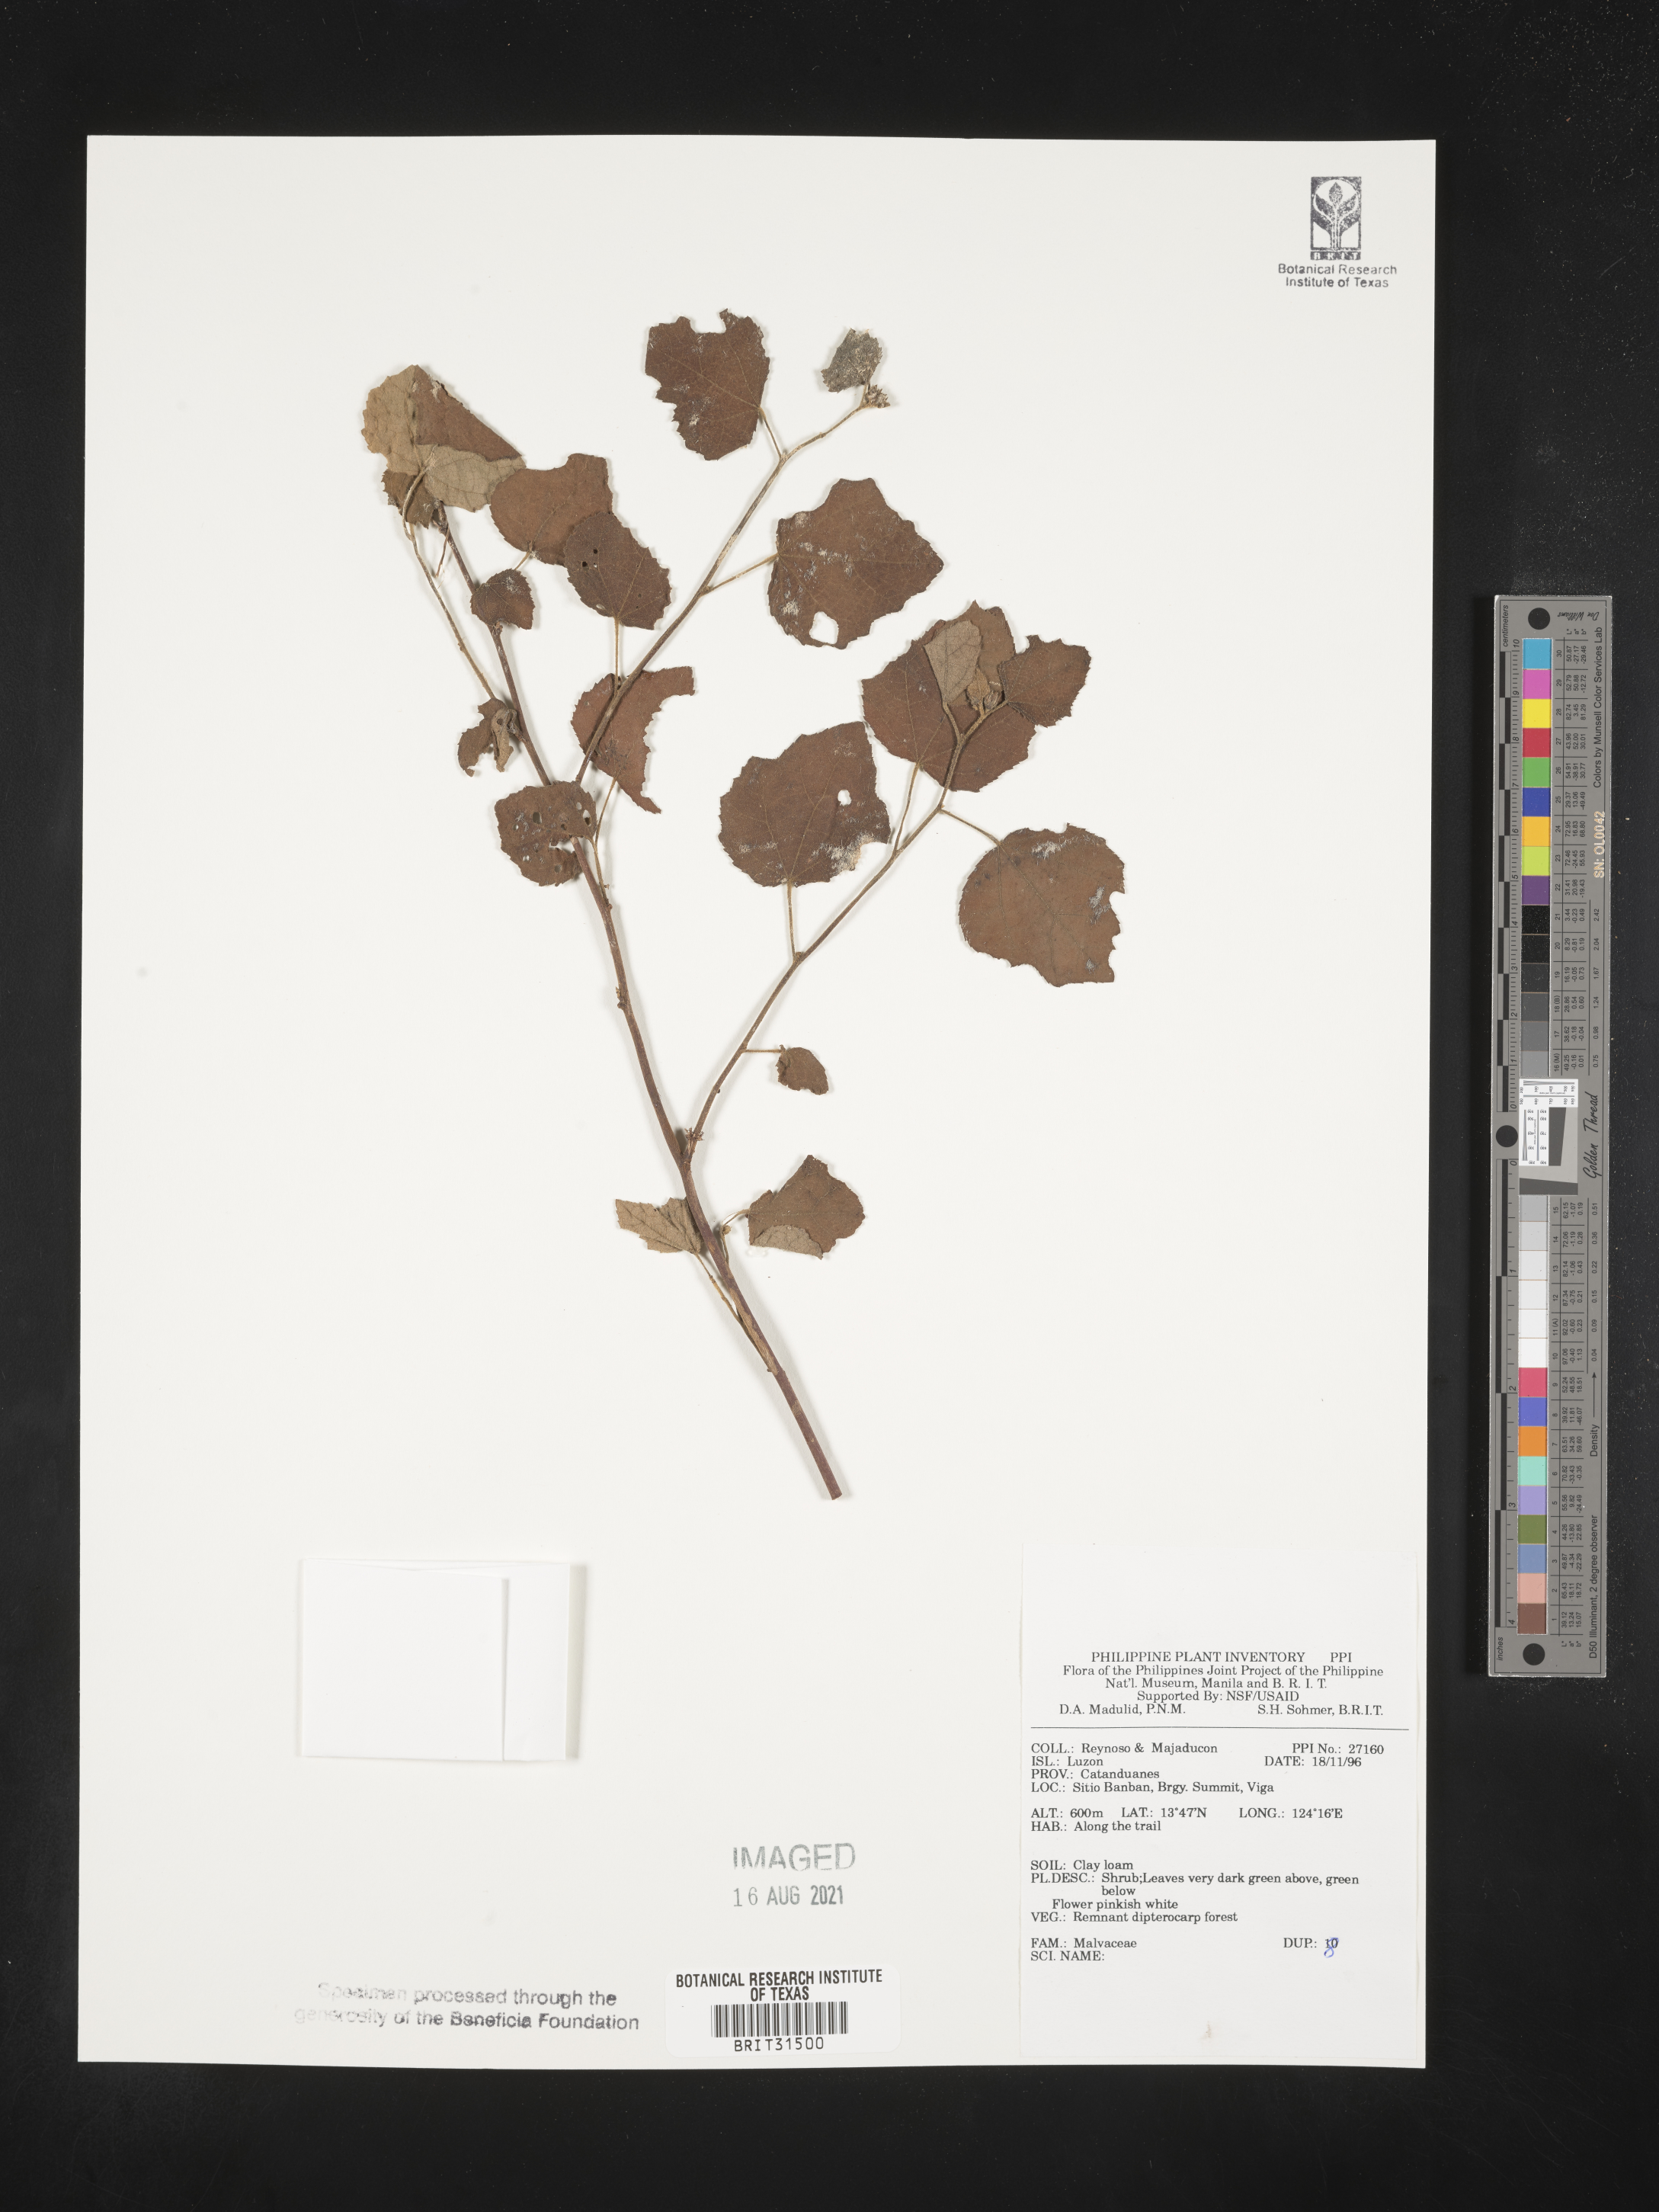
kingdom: Plantae
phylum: Tracheophyta
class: Magnoliopsida
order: Malvales
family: Malvaceae
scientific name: Malvaceae
